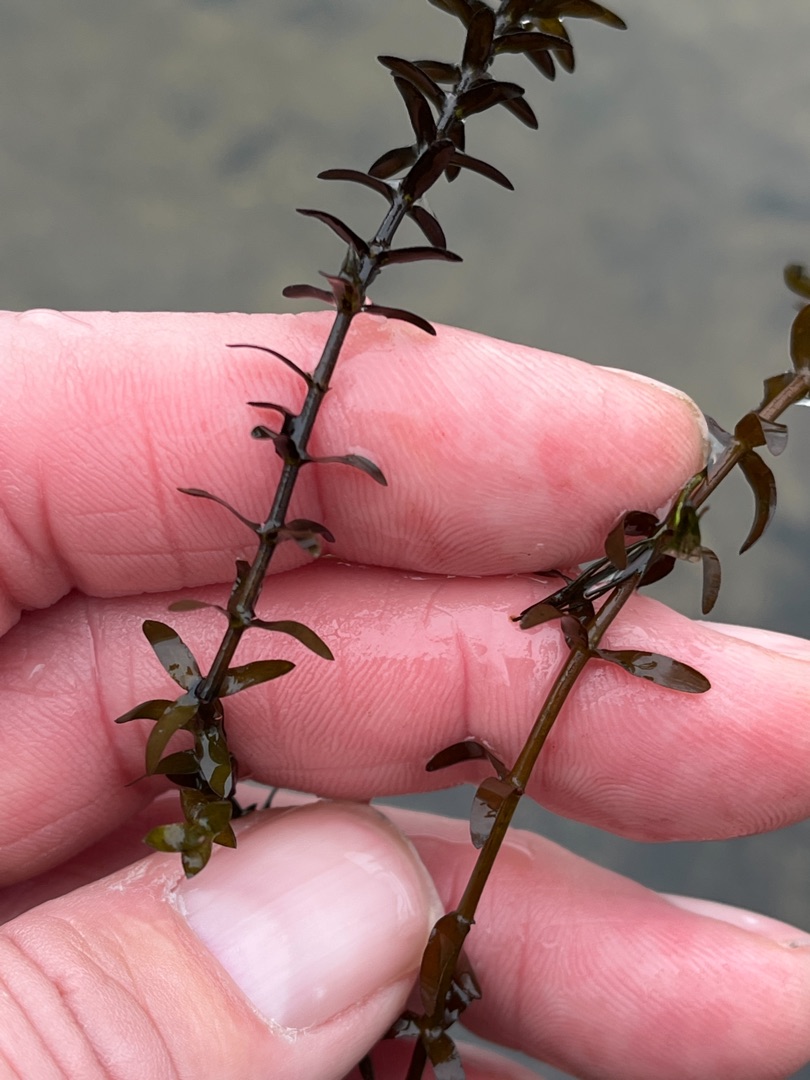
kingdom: Plantae
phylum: Tracheophyta
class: Liliopsida
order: Alismatales
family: Hydrocharitaceae
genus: Elodea
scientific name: Elodea canadensis
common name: Vandpest
